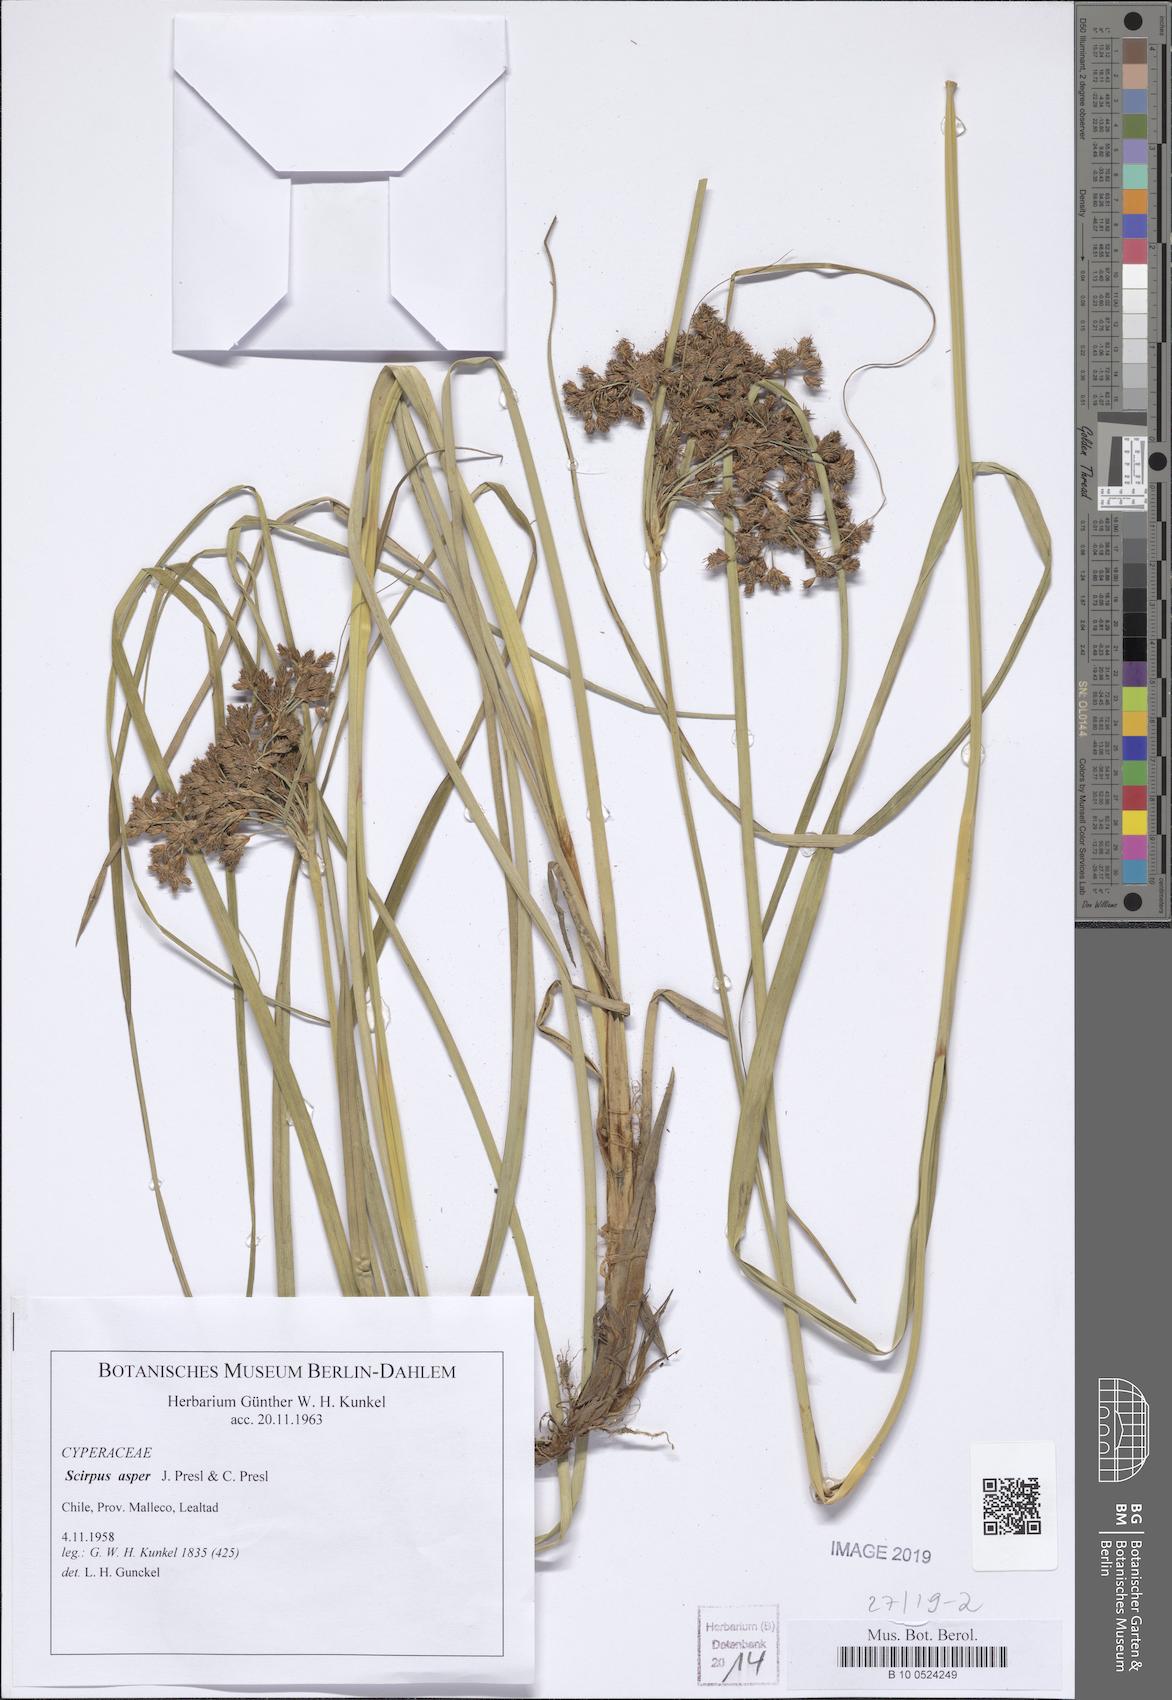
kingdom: Plantae
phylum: Tracheophyta
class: Liliopsida
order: Poales
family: Cyperaceae
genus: Rhodoscirpus
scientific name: Rhodoscirpus asper
